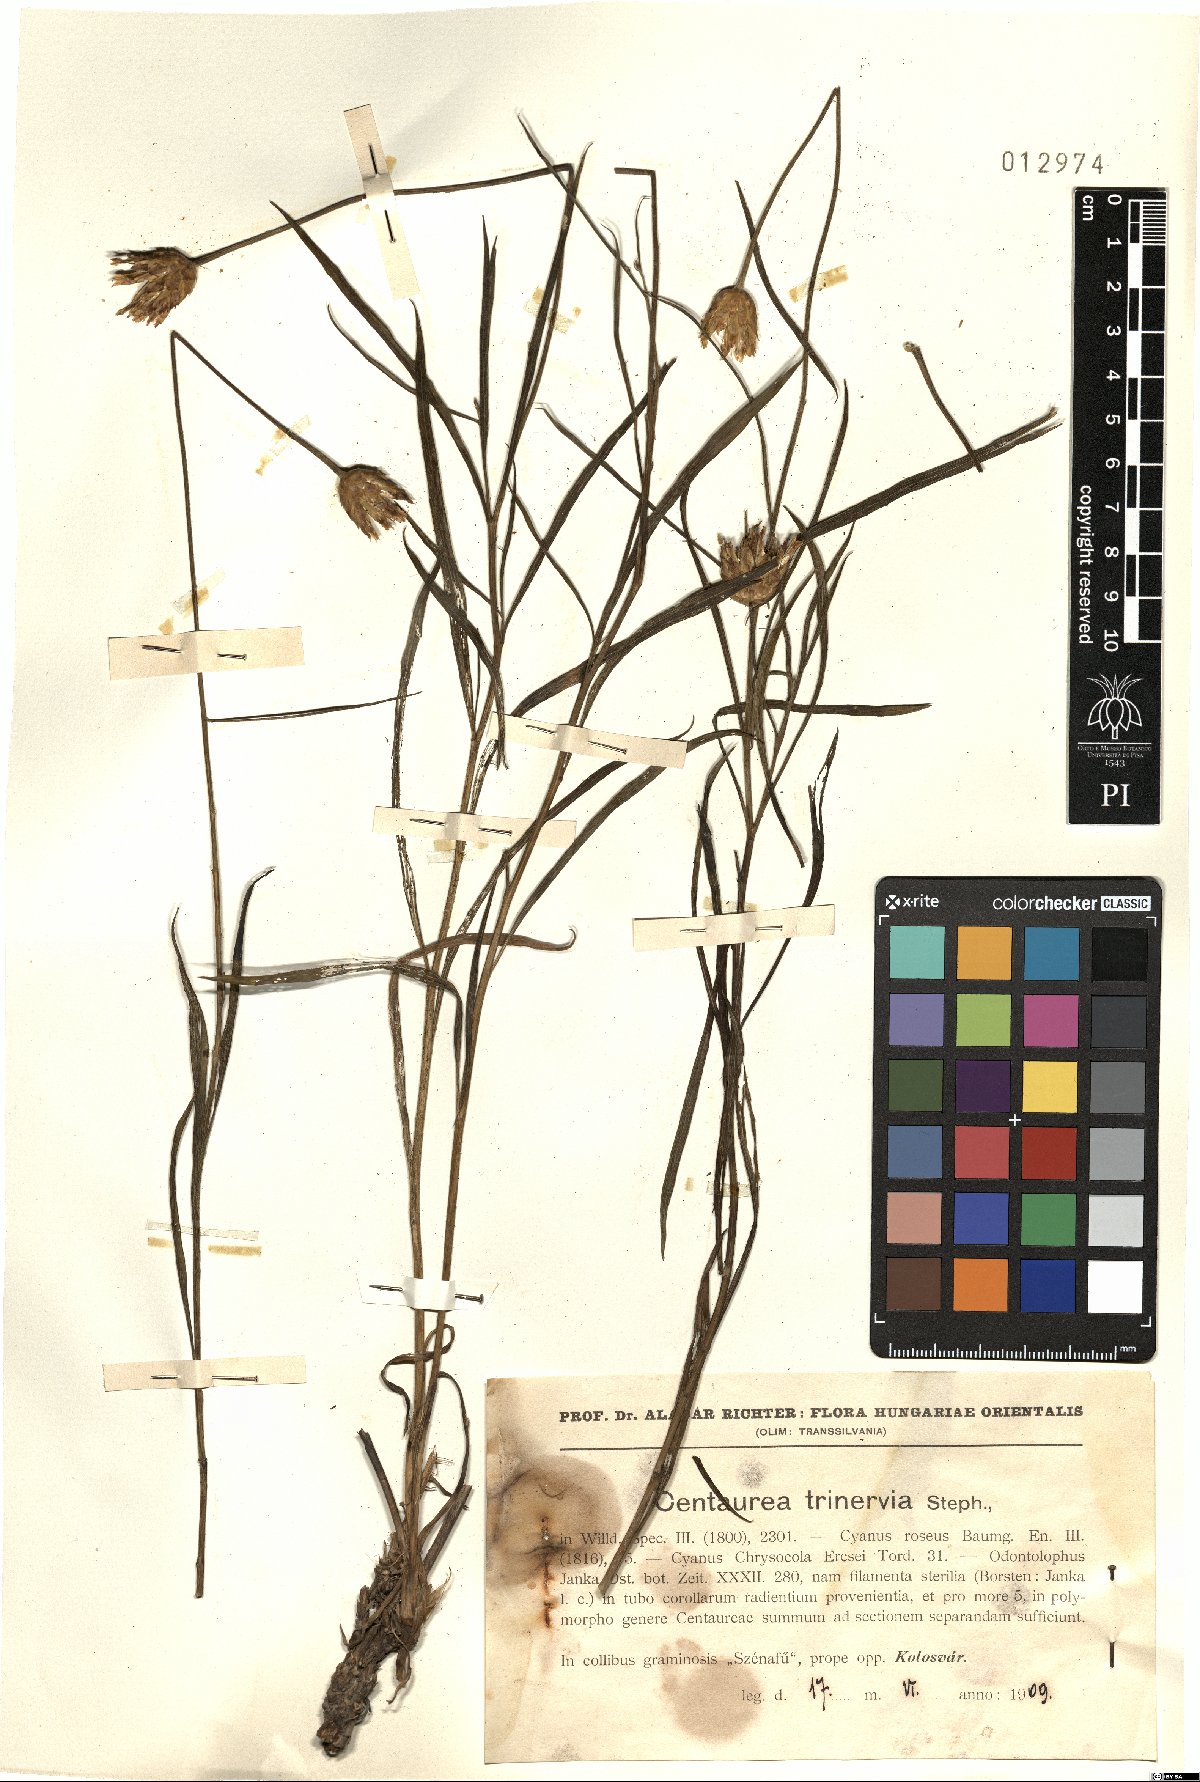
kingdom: Plantae
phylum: Tracheophyta
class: Magnoliopsida
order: Asterales
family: Asteraceae
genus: Psephellus
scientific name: Psephellus trinervius
